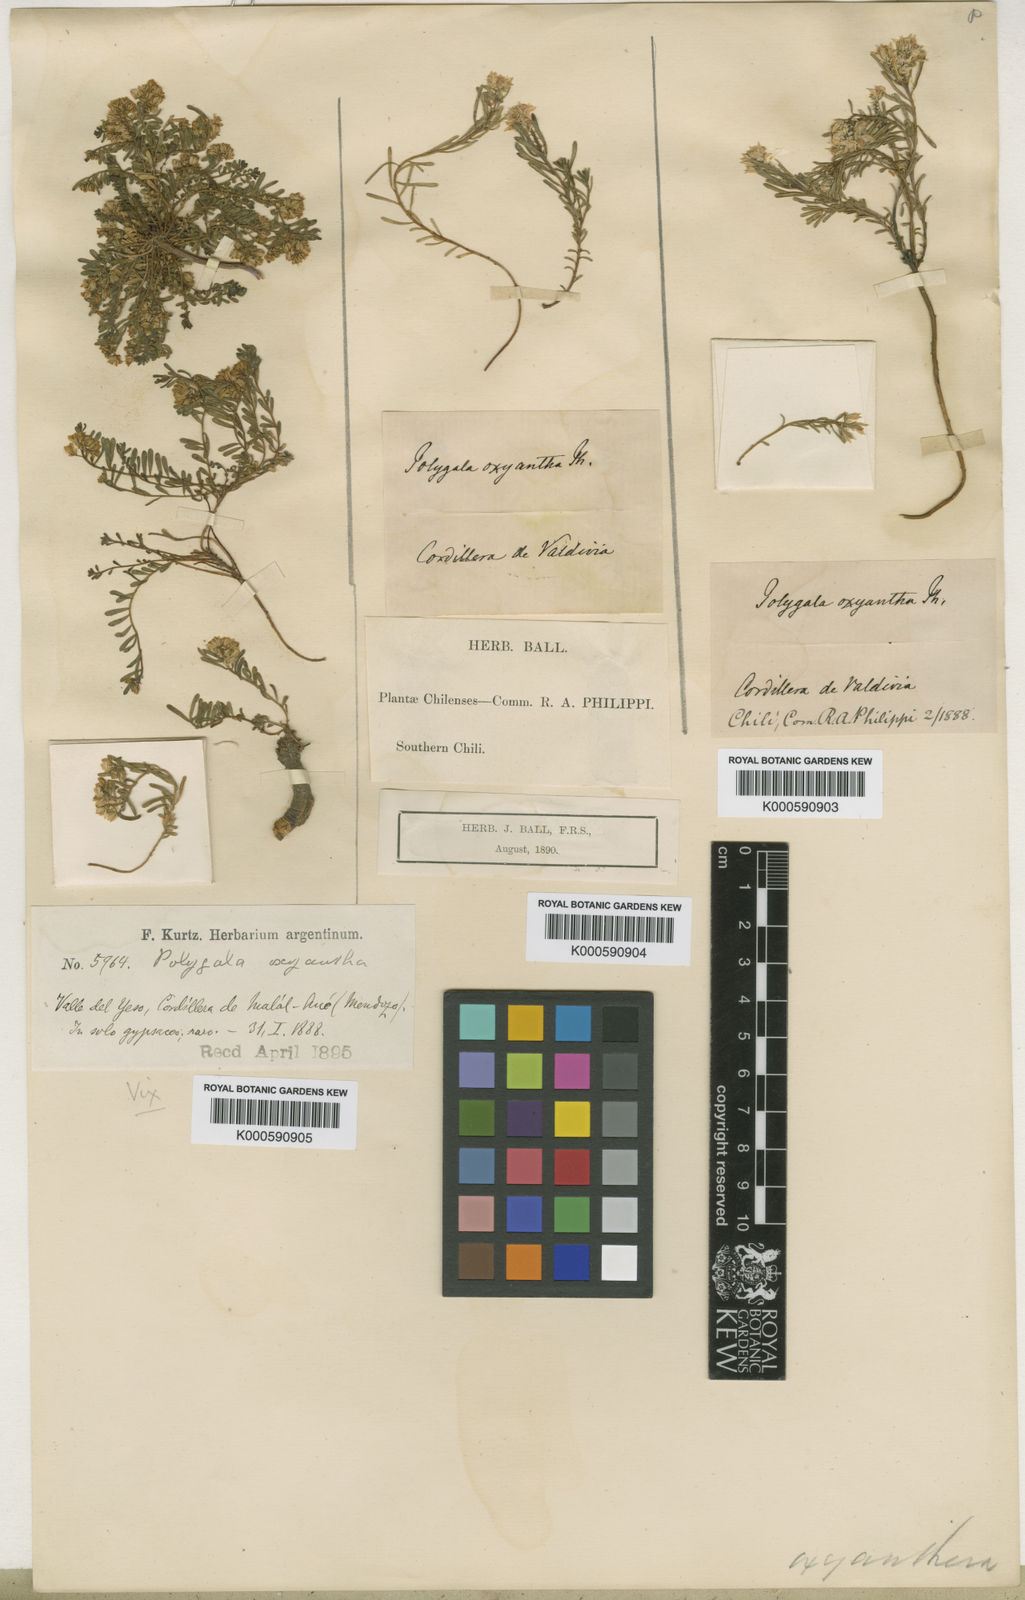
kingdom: Plantae
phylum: Tracheophyta
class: Magnoliopsida
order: Fabales
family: Polygalaceae
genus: Polygala
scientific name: Polygala subandina
